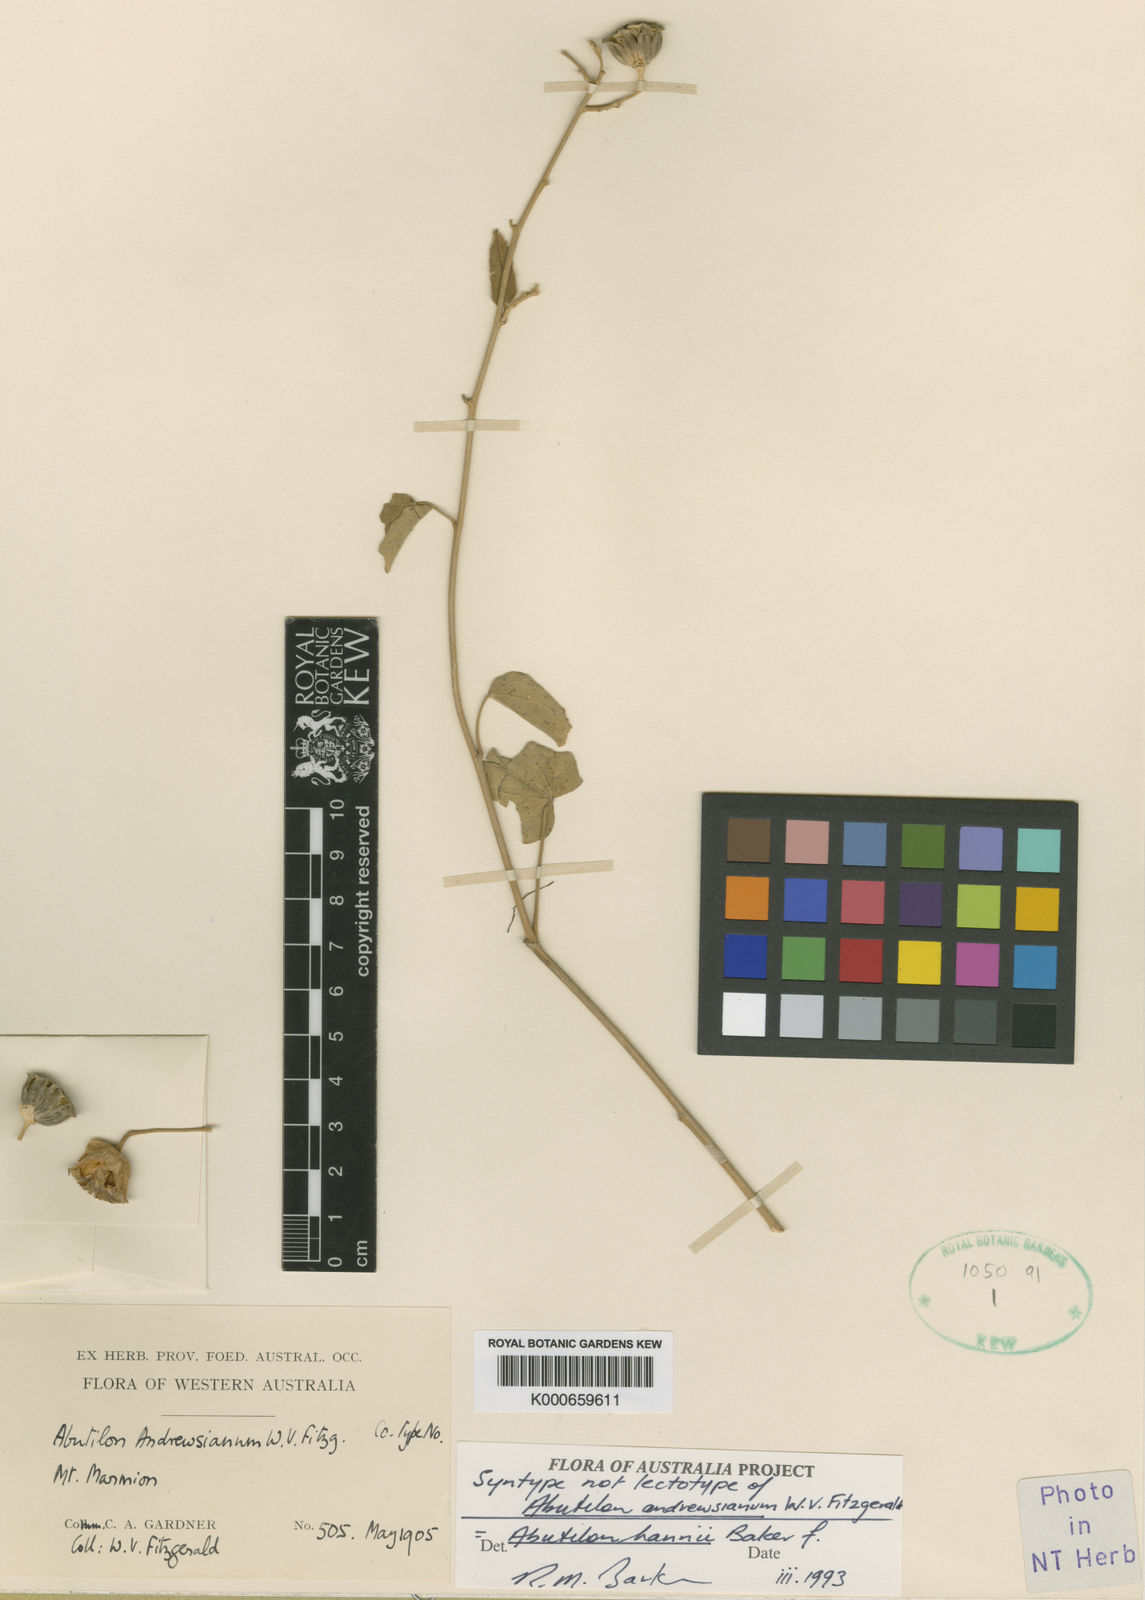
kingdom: Plantae
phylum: Tracheophyta
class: Magnoliopsida
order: Malvales
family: Malvaceae
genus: Abutilon
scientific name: Abutilon hannii
